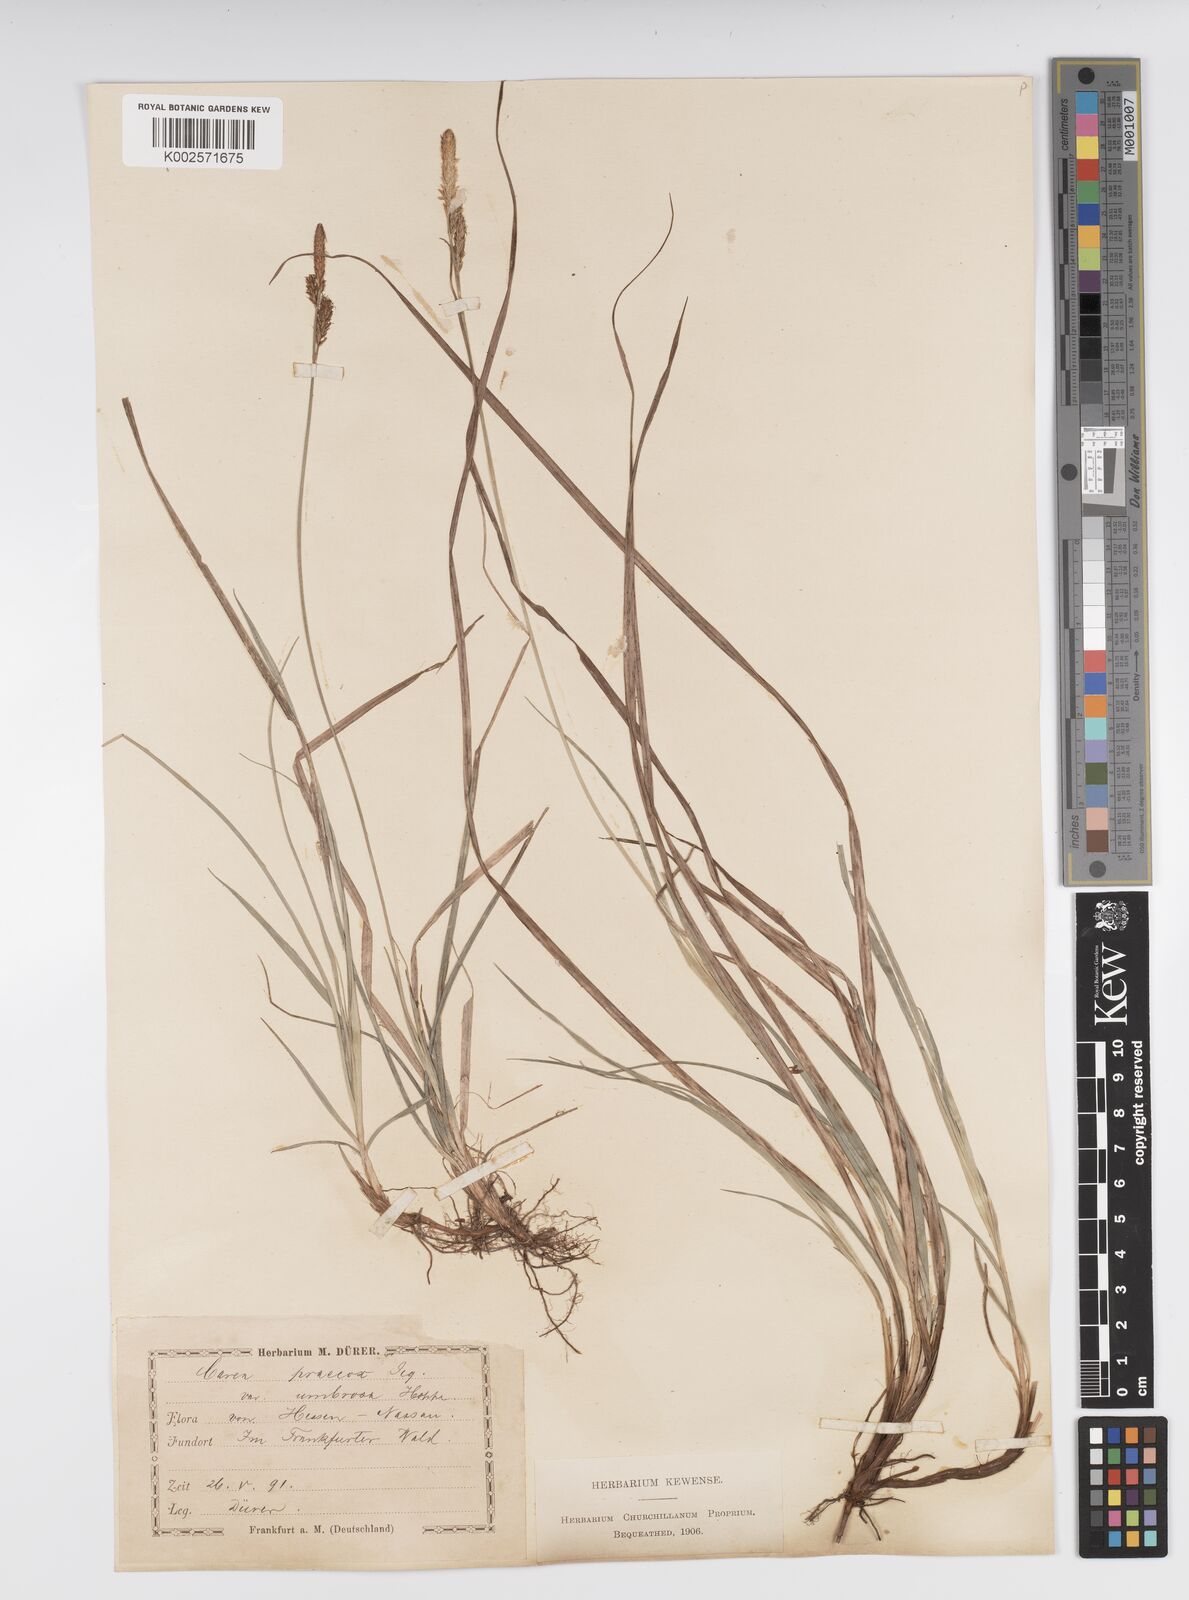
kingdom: Plantae
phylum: Tracheophyta
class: Liliopsida
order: Poales
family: Cyperaceae
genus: Carex
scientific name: Carex caryophyllea
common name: Spring sedge
